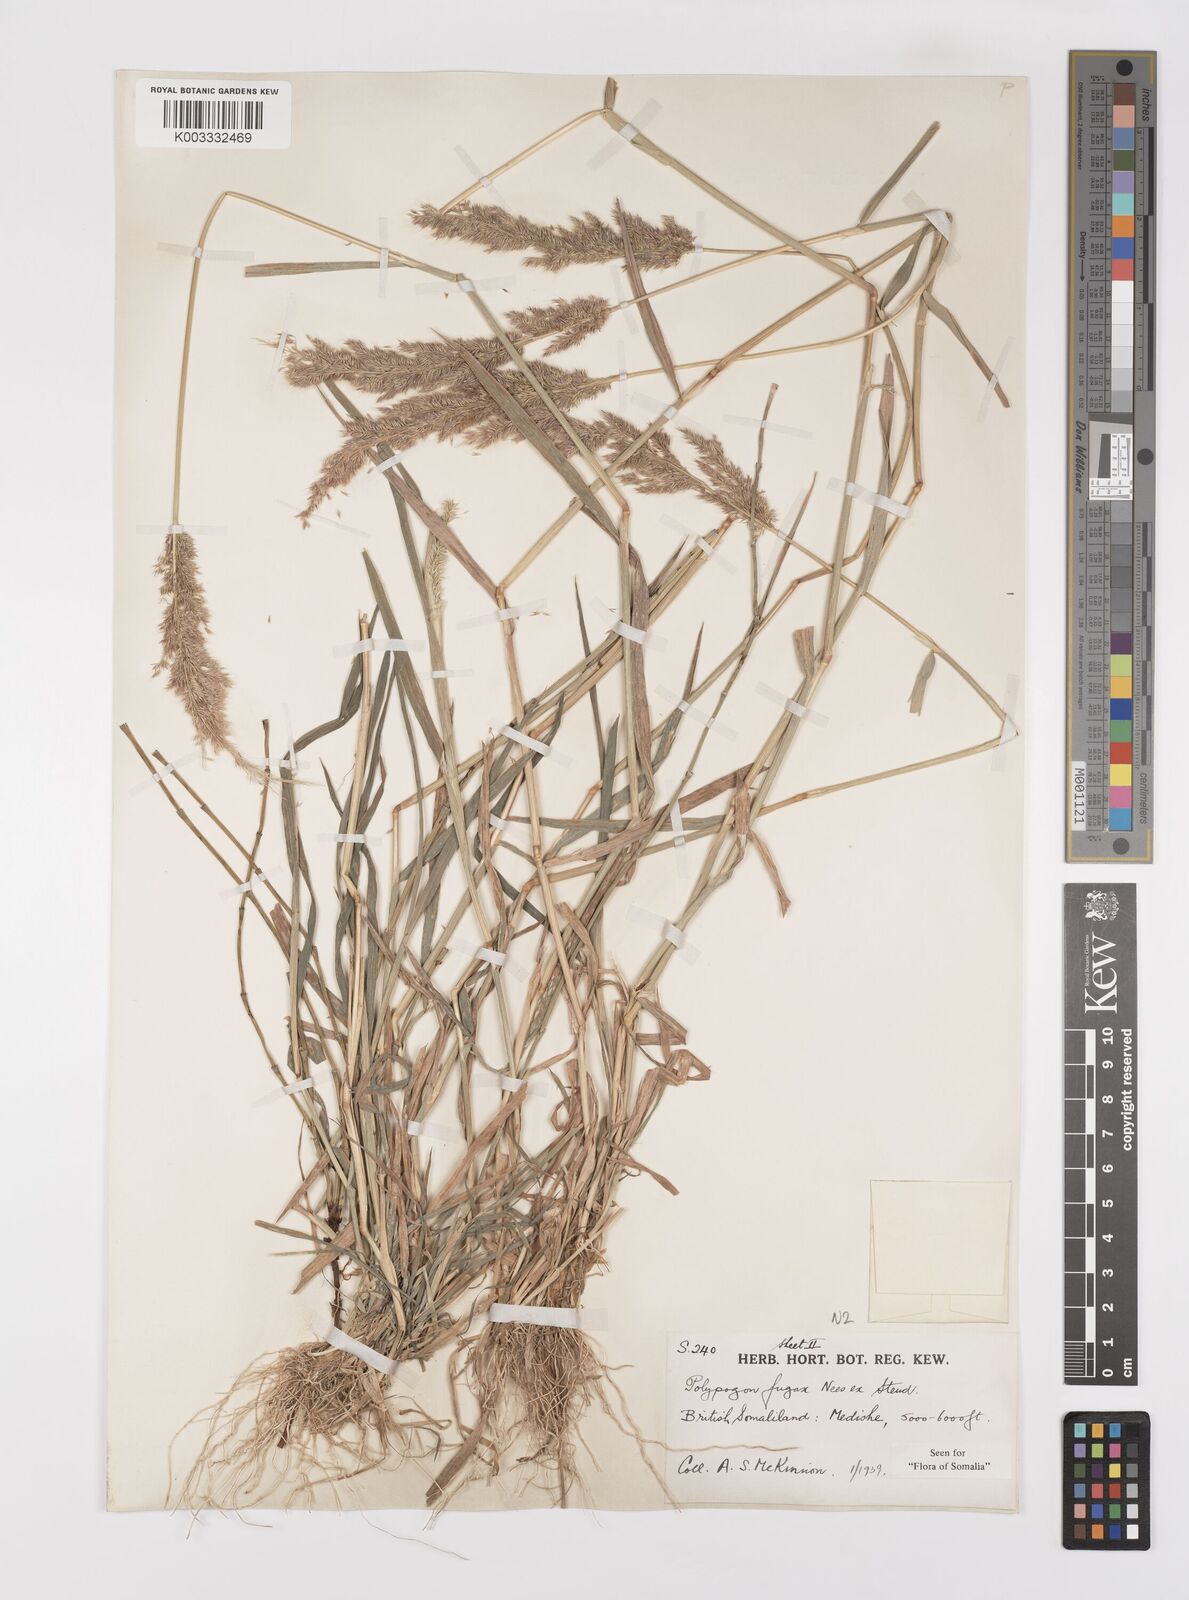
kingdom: Plantae
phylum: Tracheophyta
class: Liliopsida
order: Poales
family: Poaceae
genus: Polypogon
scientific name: Polypogon fugax
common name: Asia minor bluegrass
